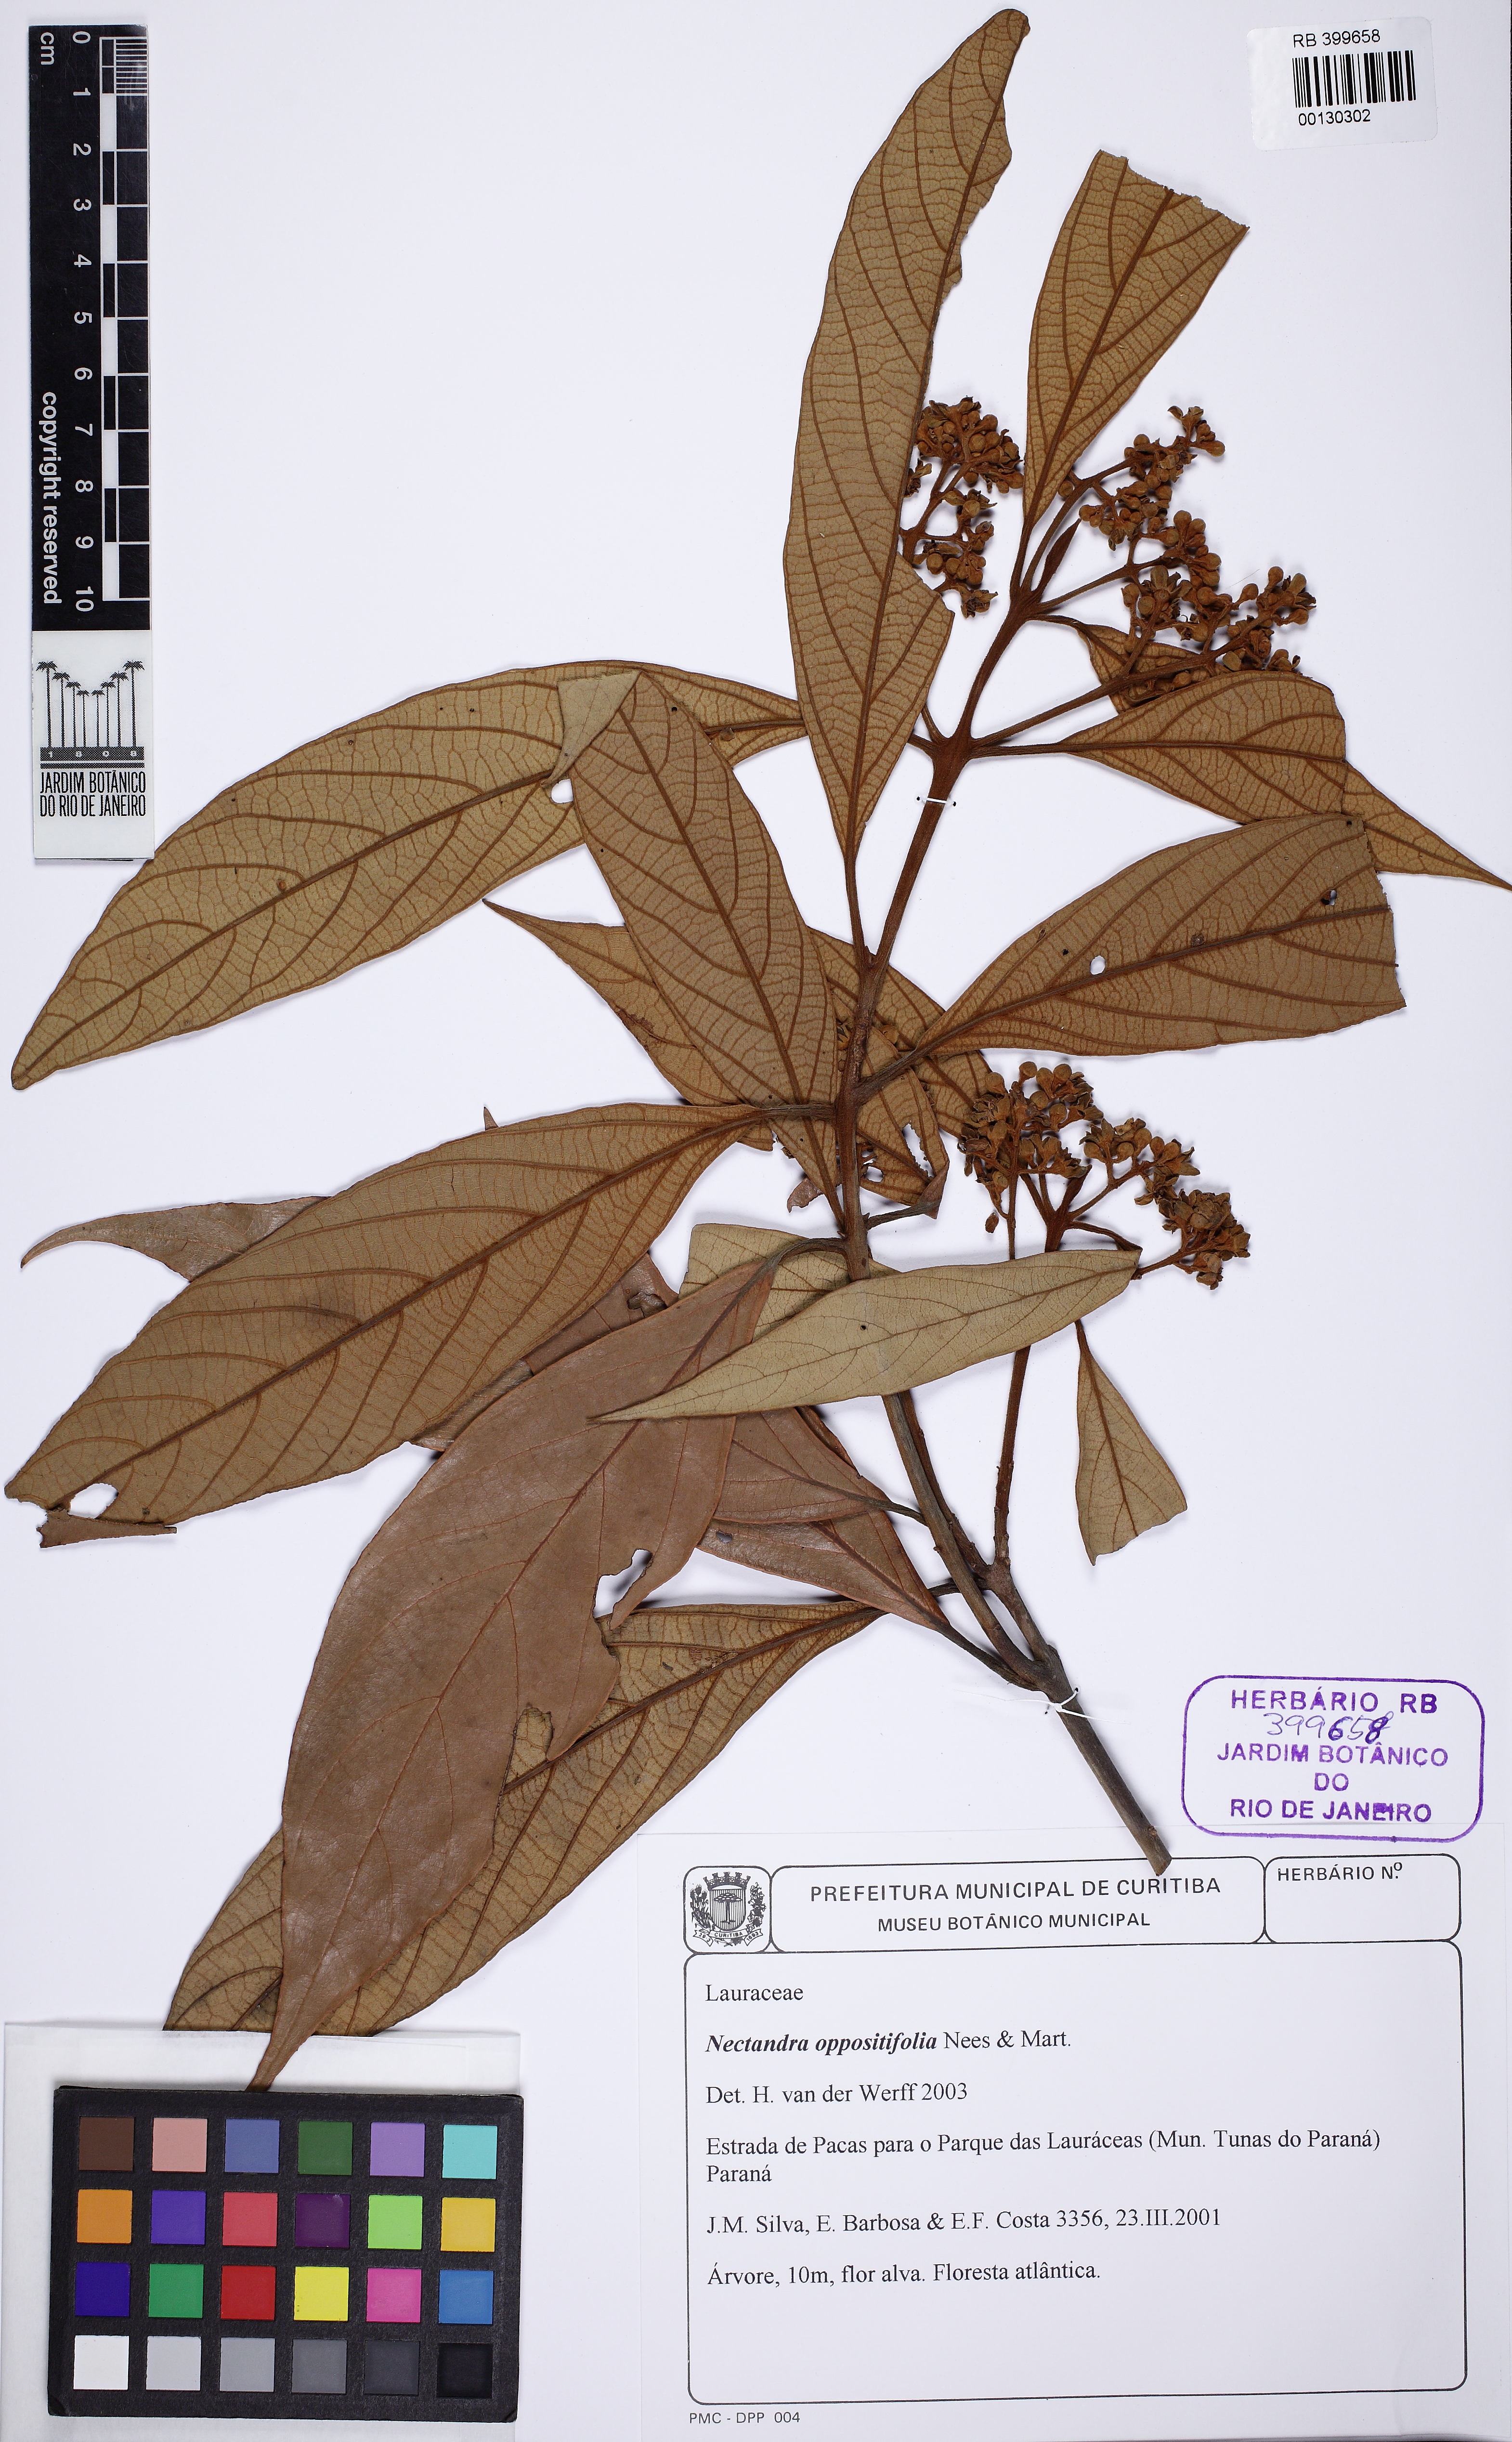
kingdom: Plantae
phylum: Tracheophyta
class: Magnoliopsida
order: Laurales
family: Lauraceae
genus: Nectandra
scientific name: Nectandra oppositifolia
